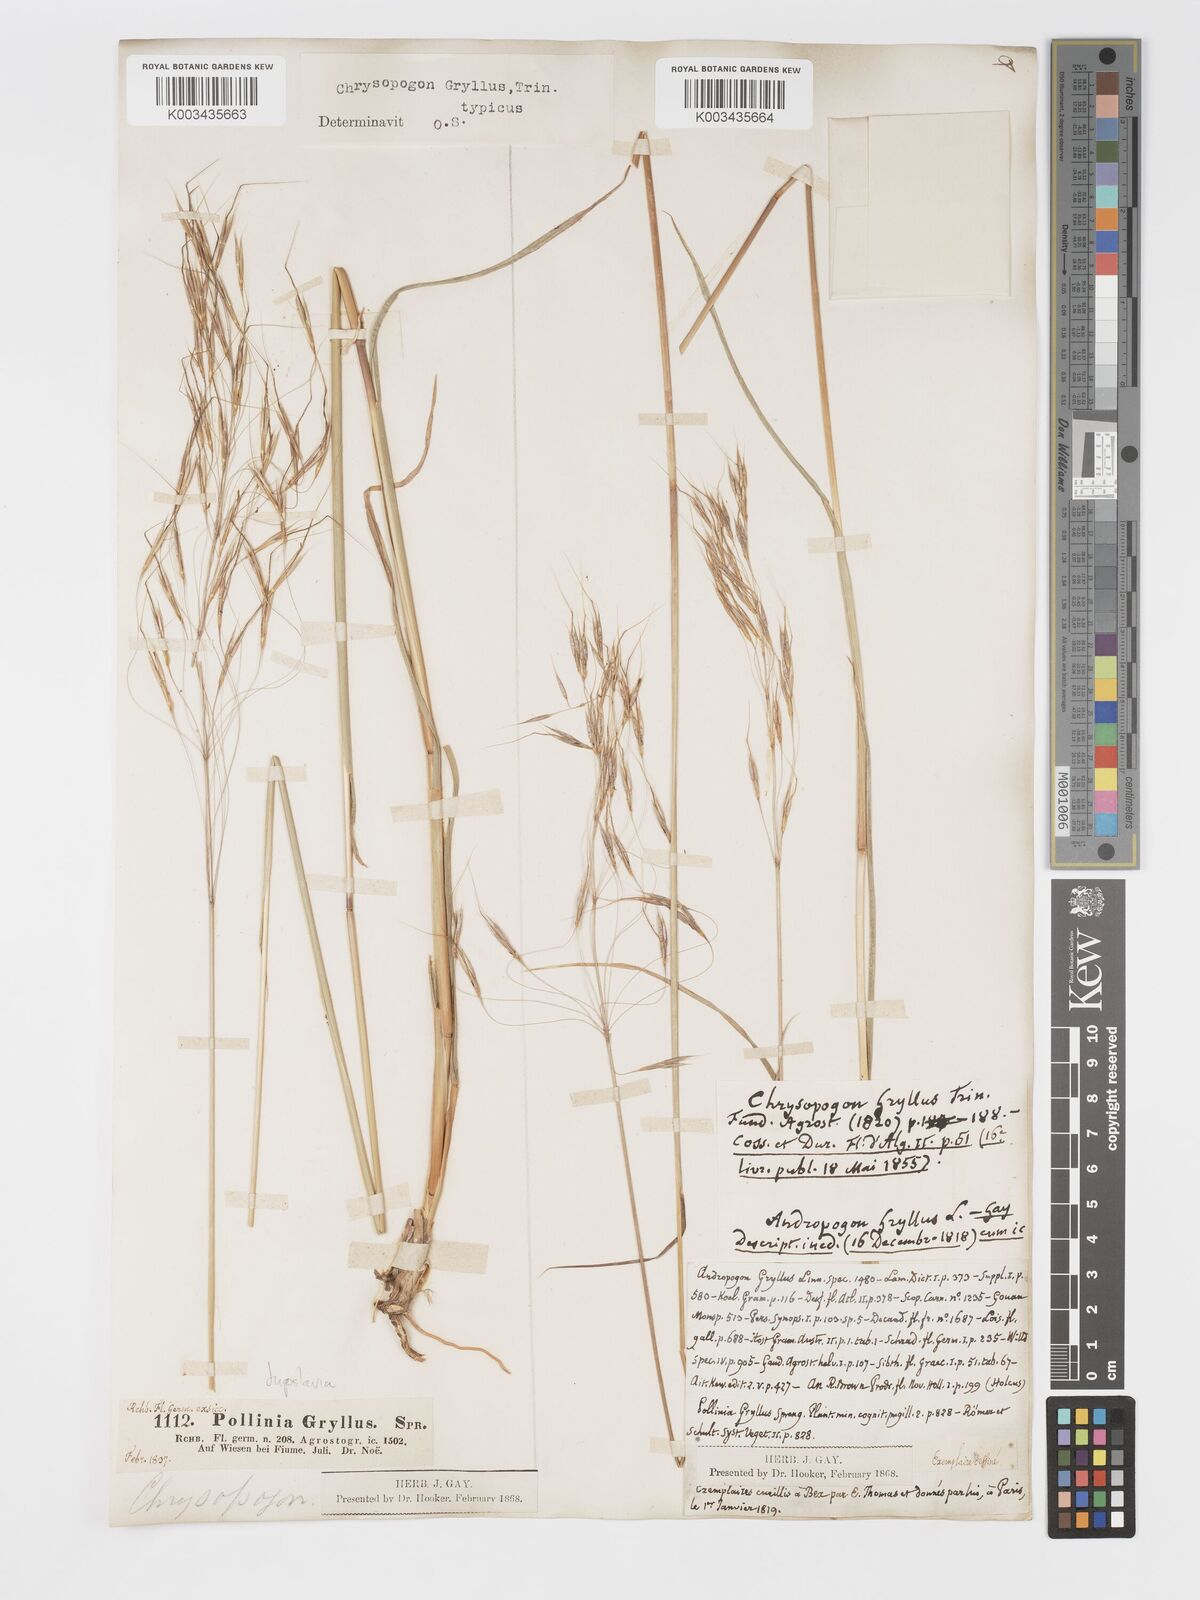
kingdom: Plantae
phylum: Tracheophyta
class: Liliopsida
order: Poales
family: Poaceae
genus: Chrysopogon
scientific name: Chrysopogon gryllus
